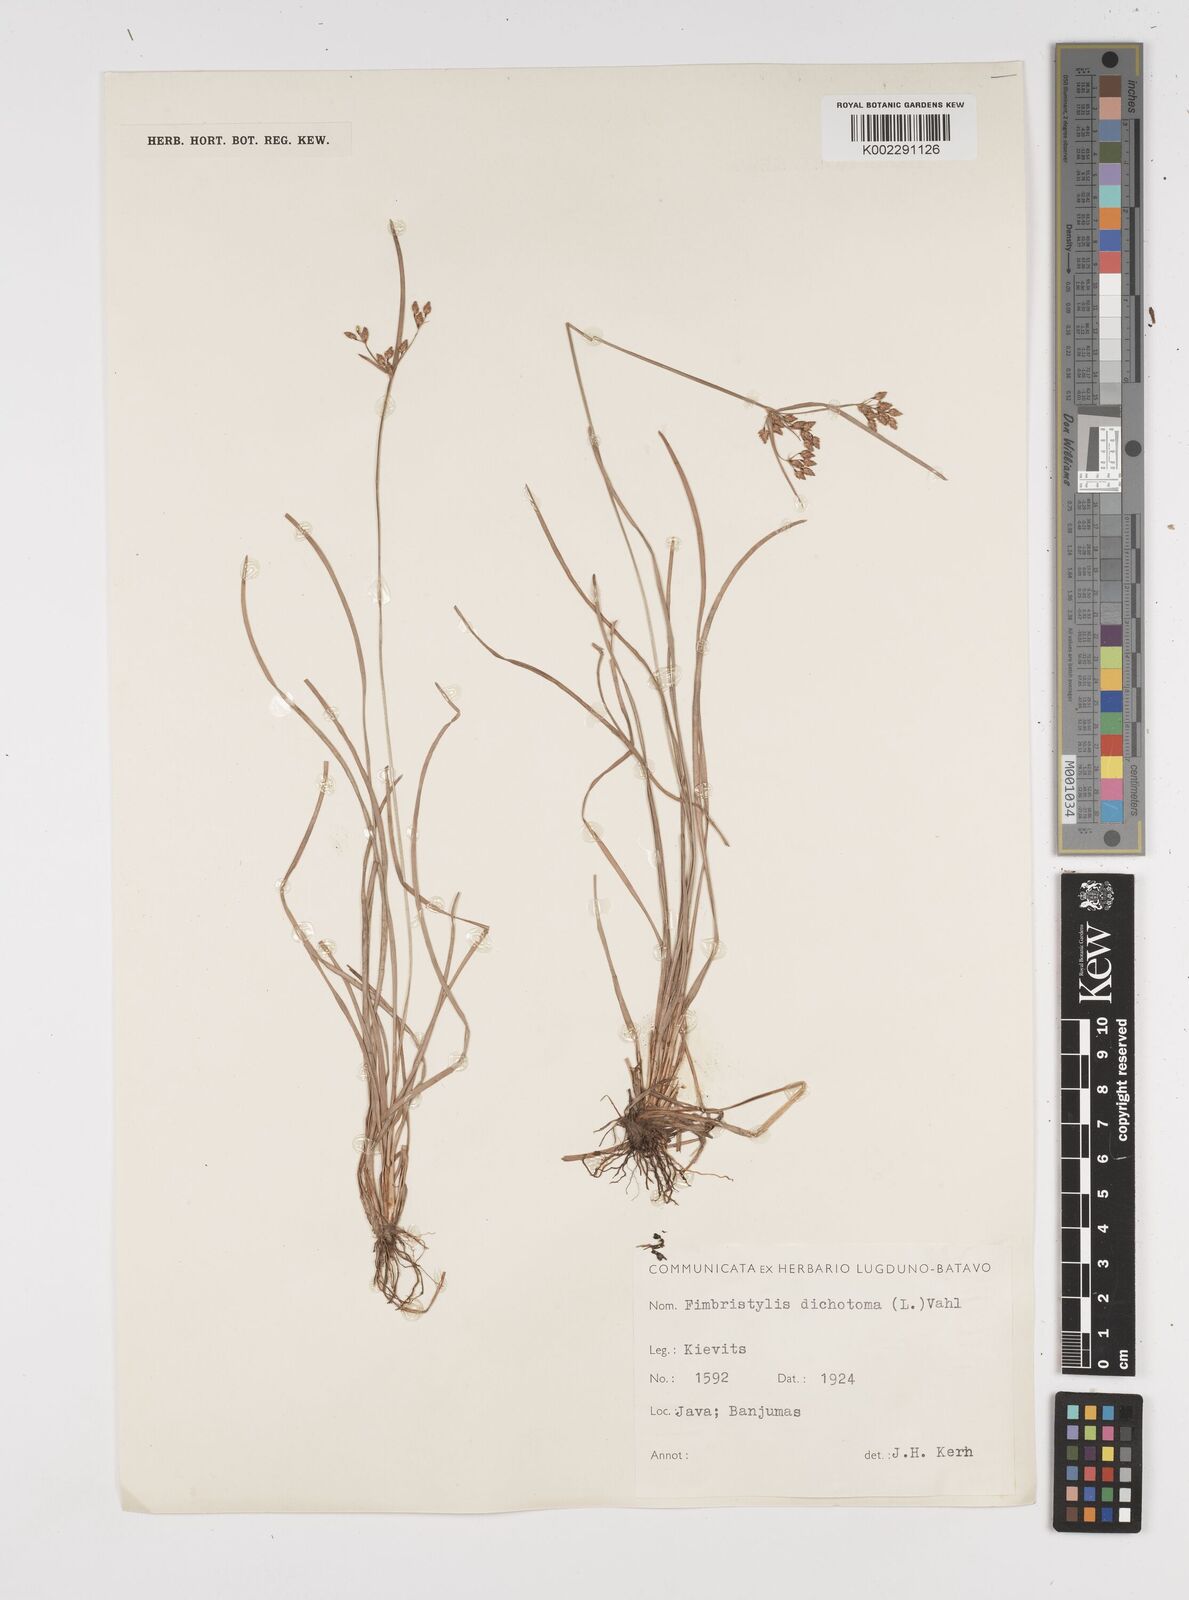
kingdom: Plantae
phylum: Tracheophyta
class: Liliopsida
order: Poales
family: Cyperaceae
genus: Fimbristylis
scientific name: Fimbristylis dichotoma
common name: Forked fimbry
